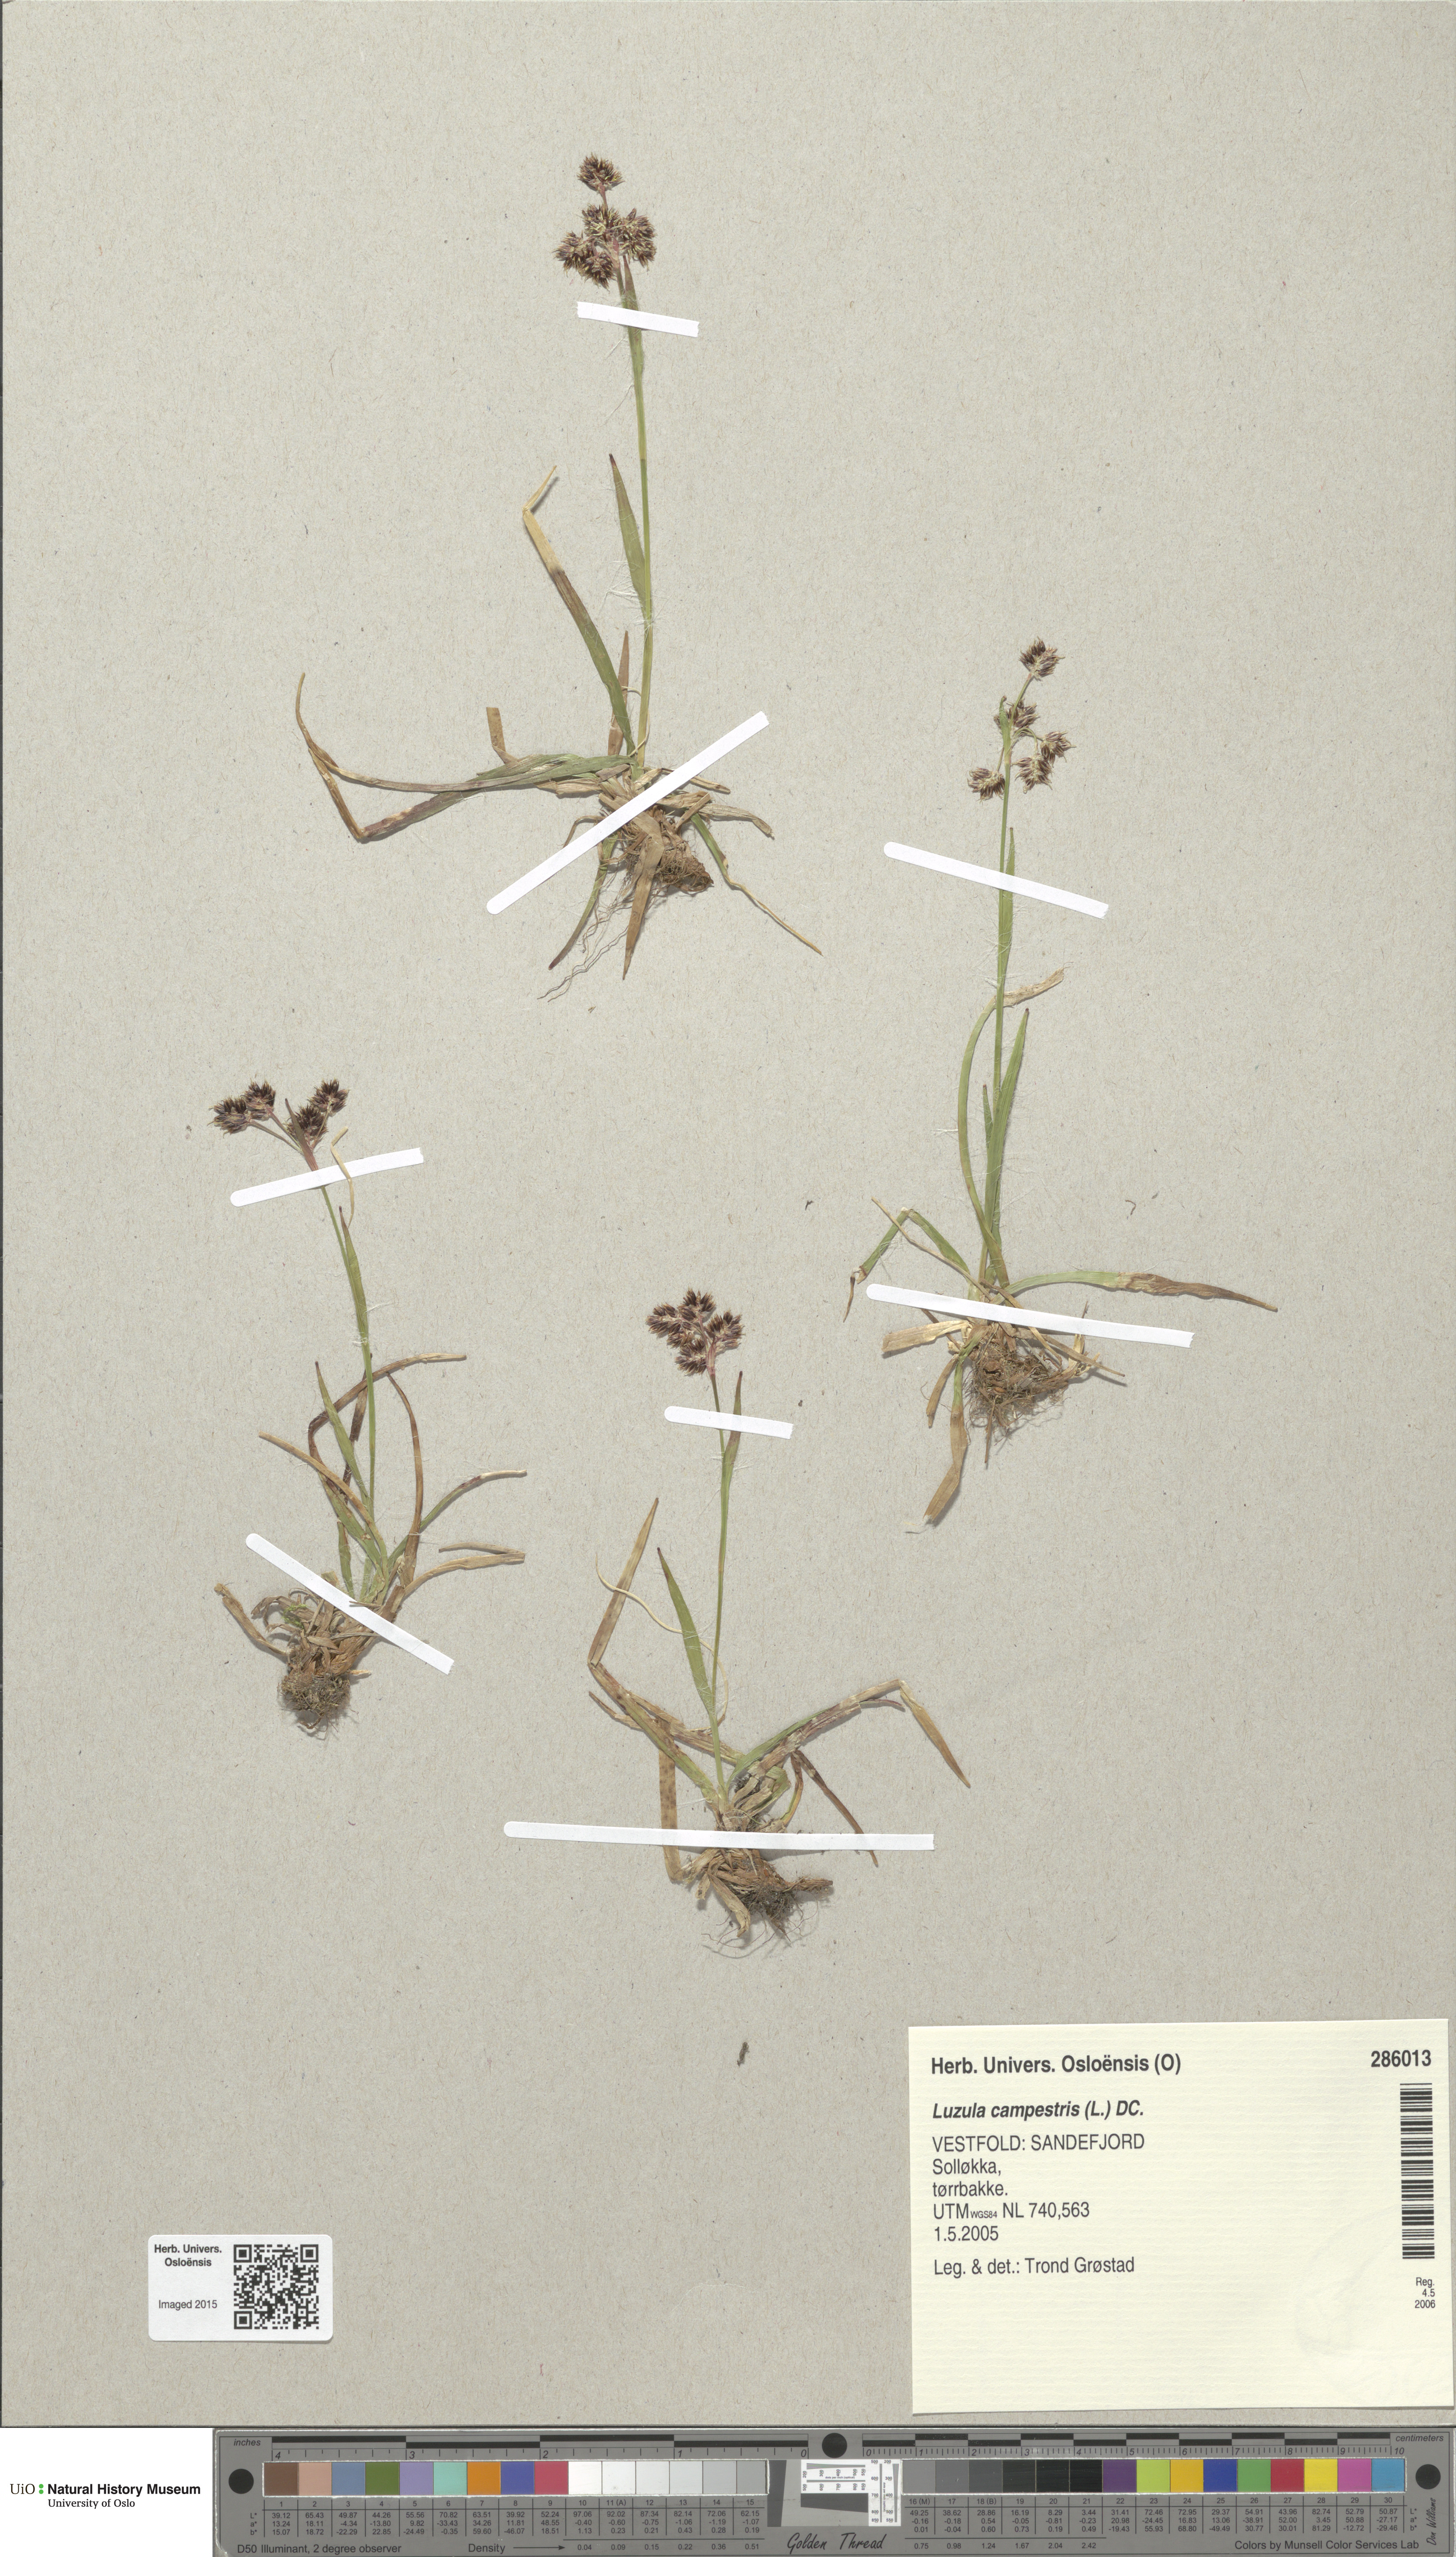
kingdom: Plantae
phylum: Tracheophyta
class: Liliopsida
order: Poales
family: Juncaceae
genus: Luzula
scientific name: Luzula campestris
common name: Field wood-rush
